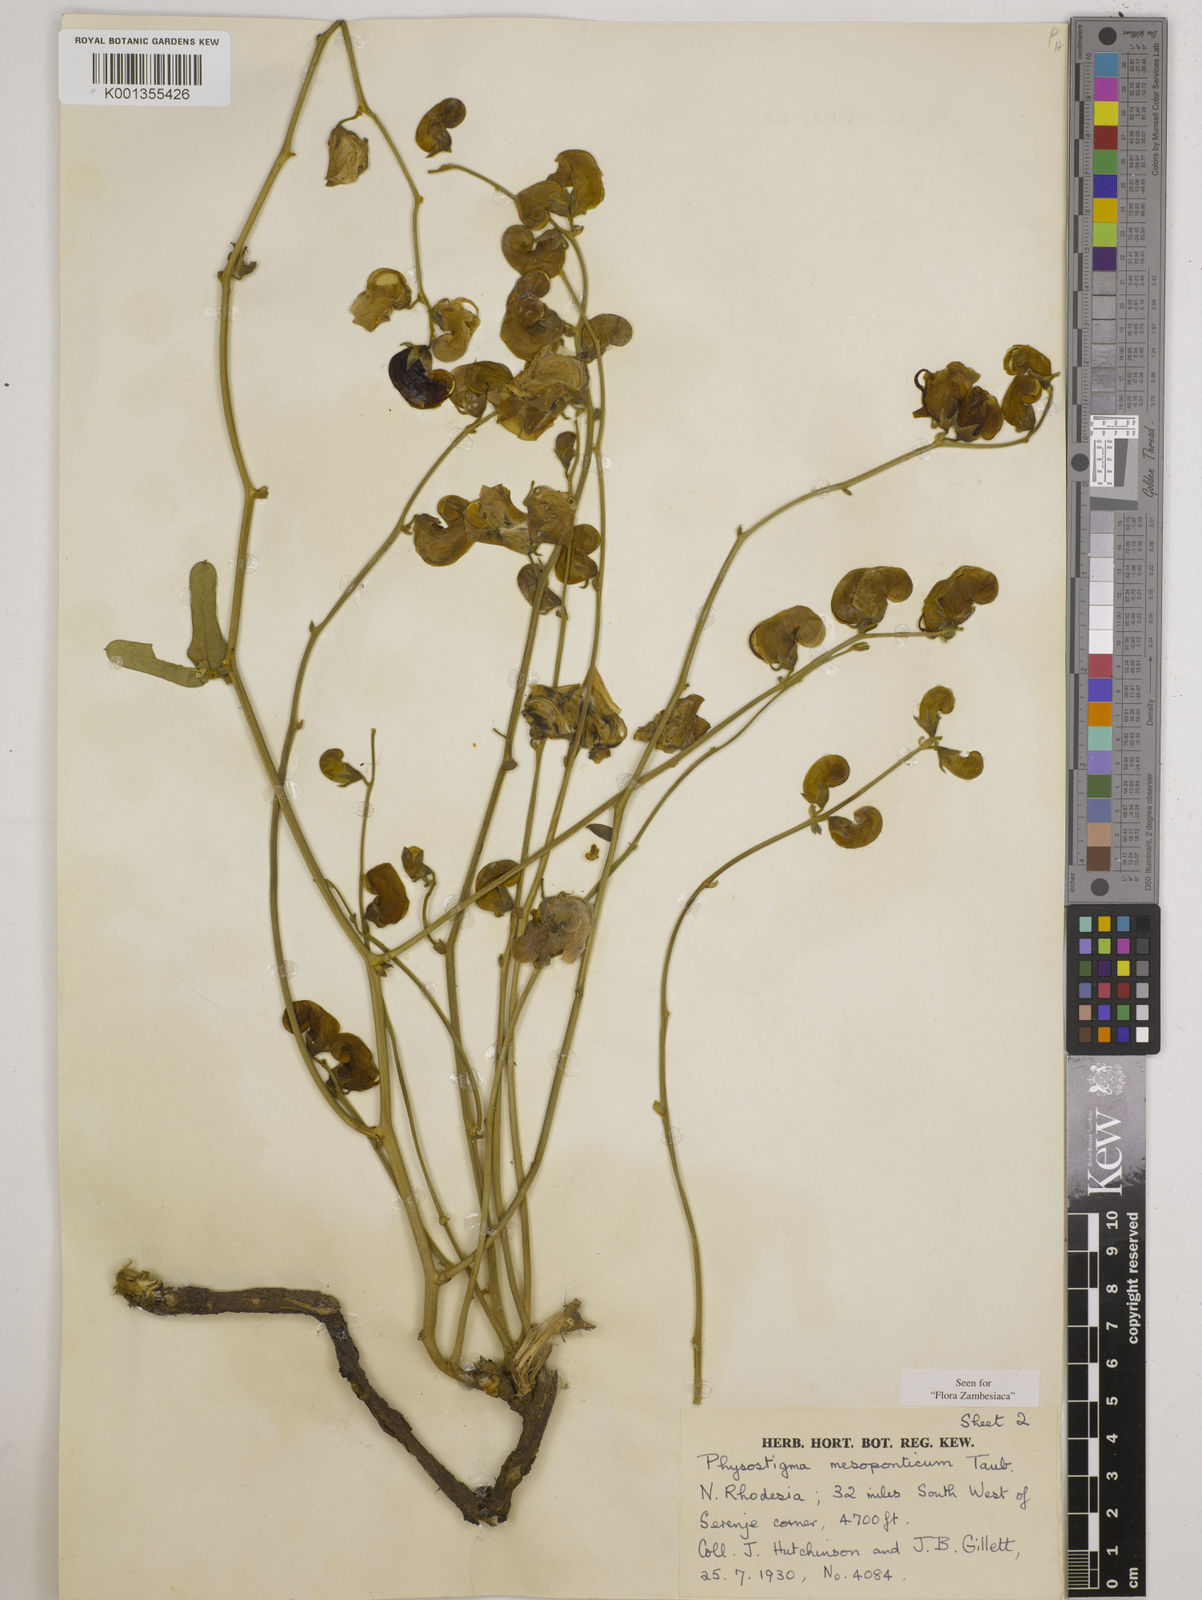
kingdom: Plantae
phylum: Tracheophyta
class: Magnoliopsida
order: Fabales
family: Fabaceae
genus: Physostigma
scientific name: Physostigma mesoponticum
